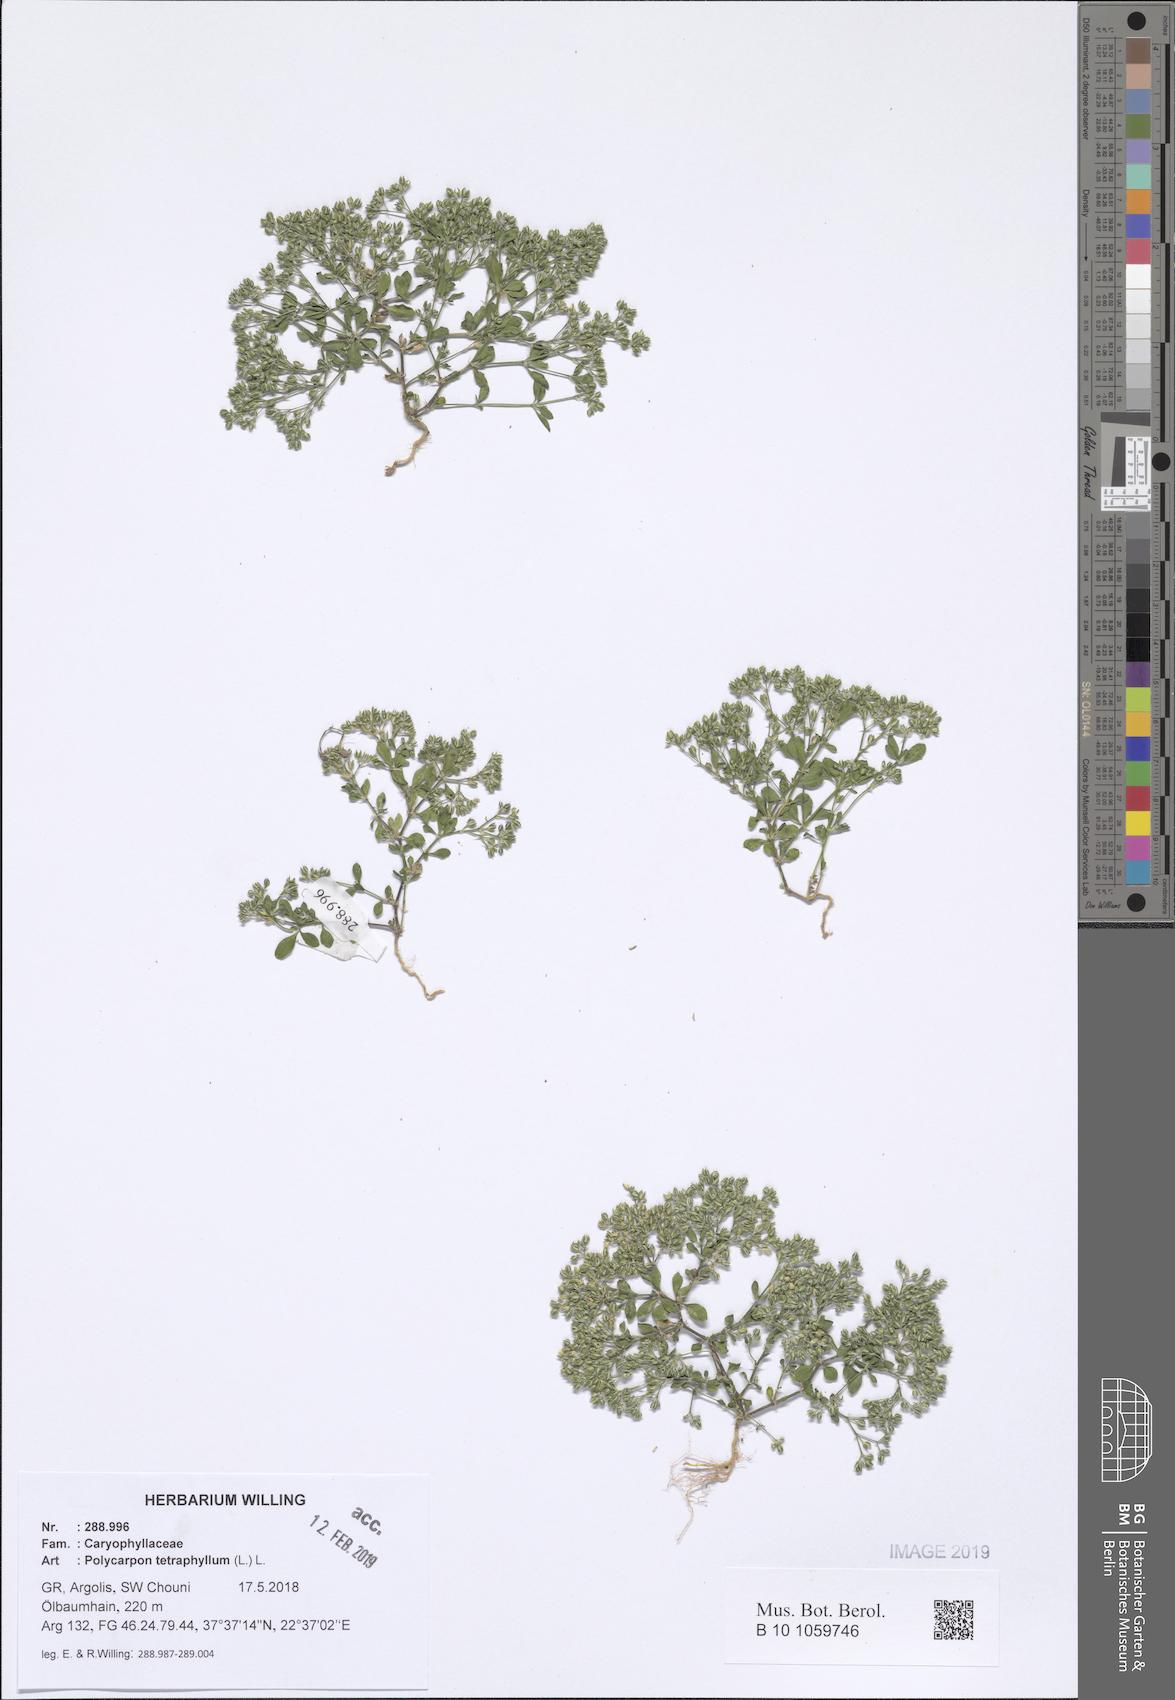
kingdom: Plantae
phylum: Tracheophyta
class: Magnoliopsida
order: Caryophyllales
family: Caryophyllaceae
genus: Polycarpon
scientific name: Polycarpon tetraphyllum
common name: Four-leaved all-seed
